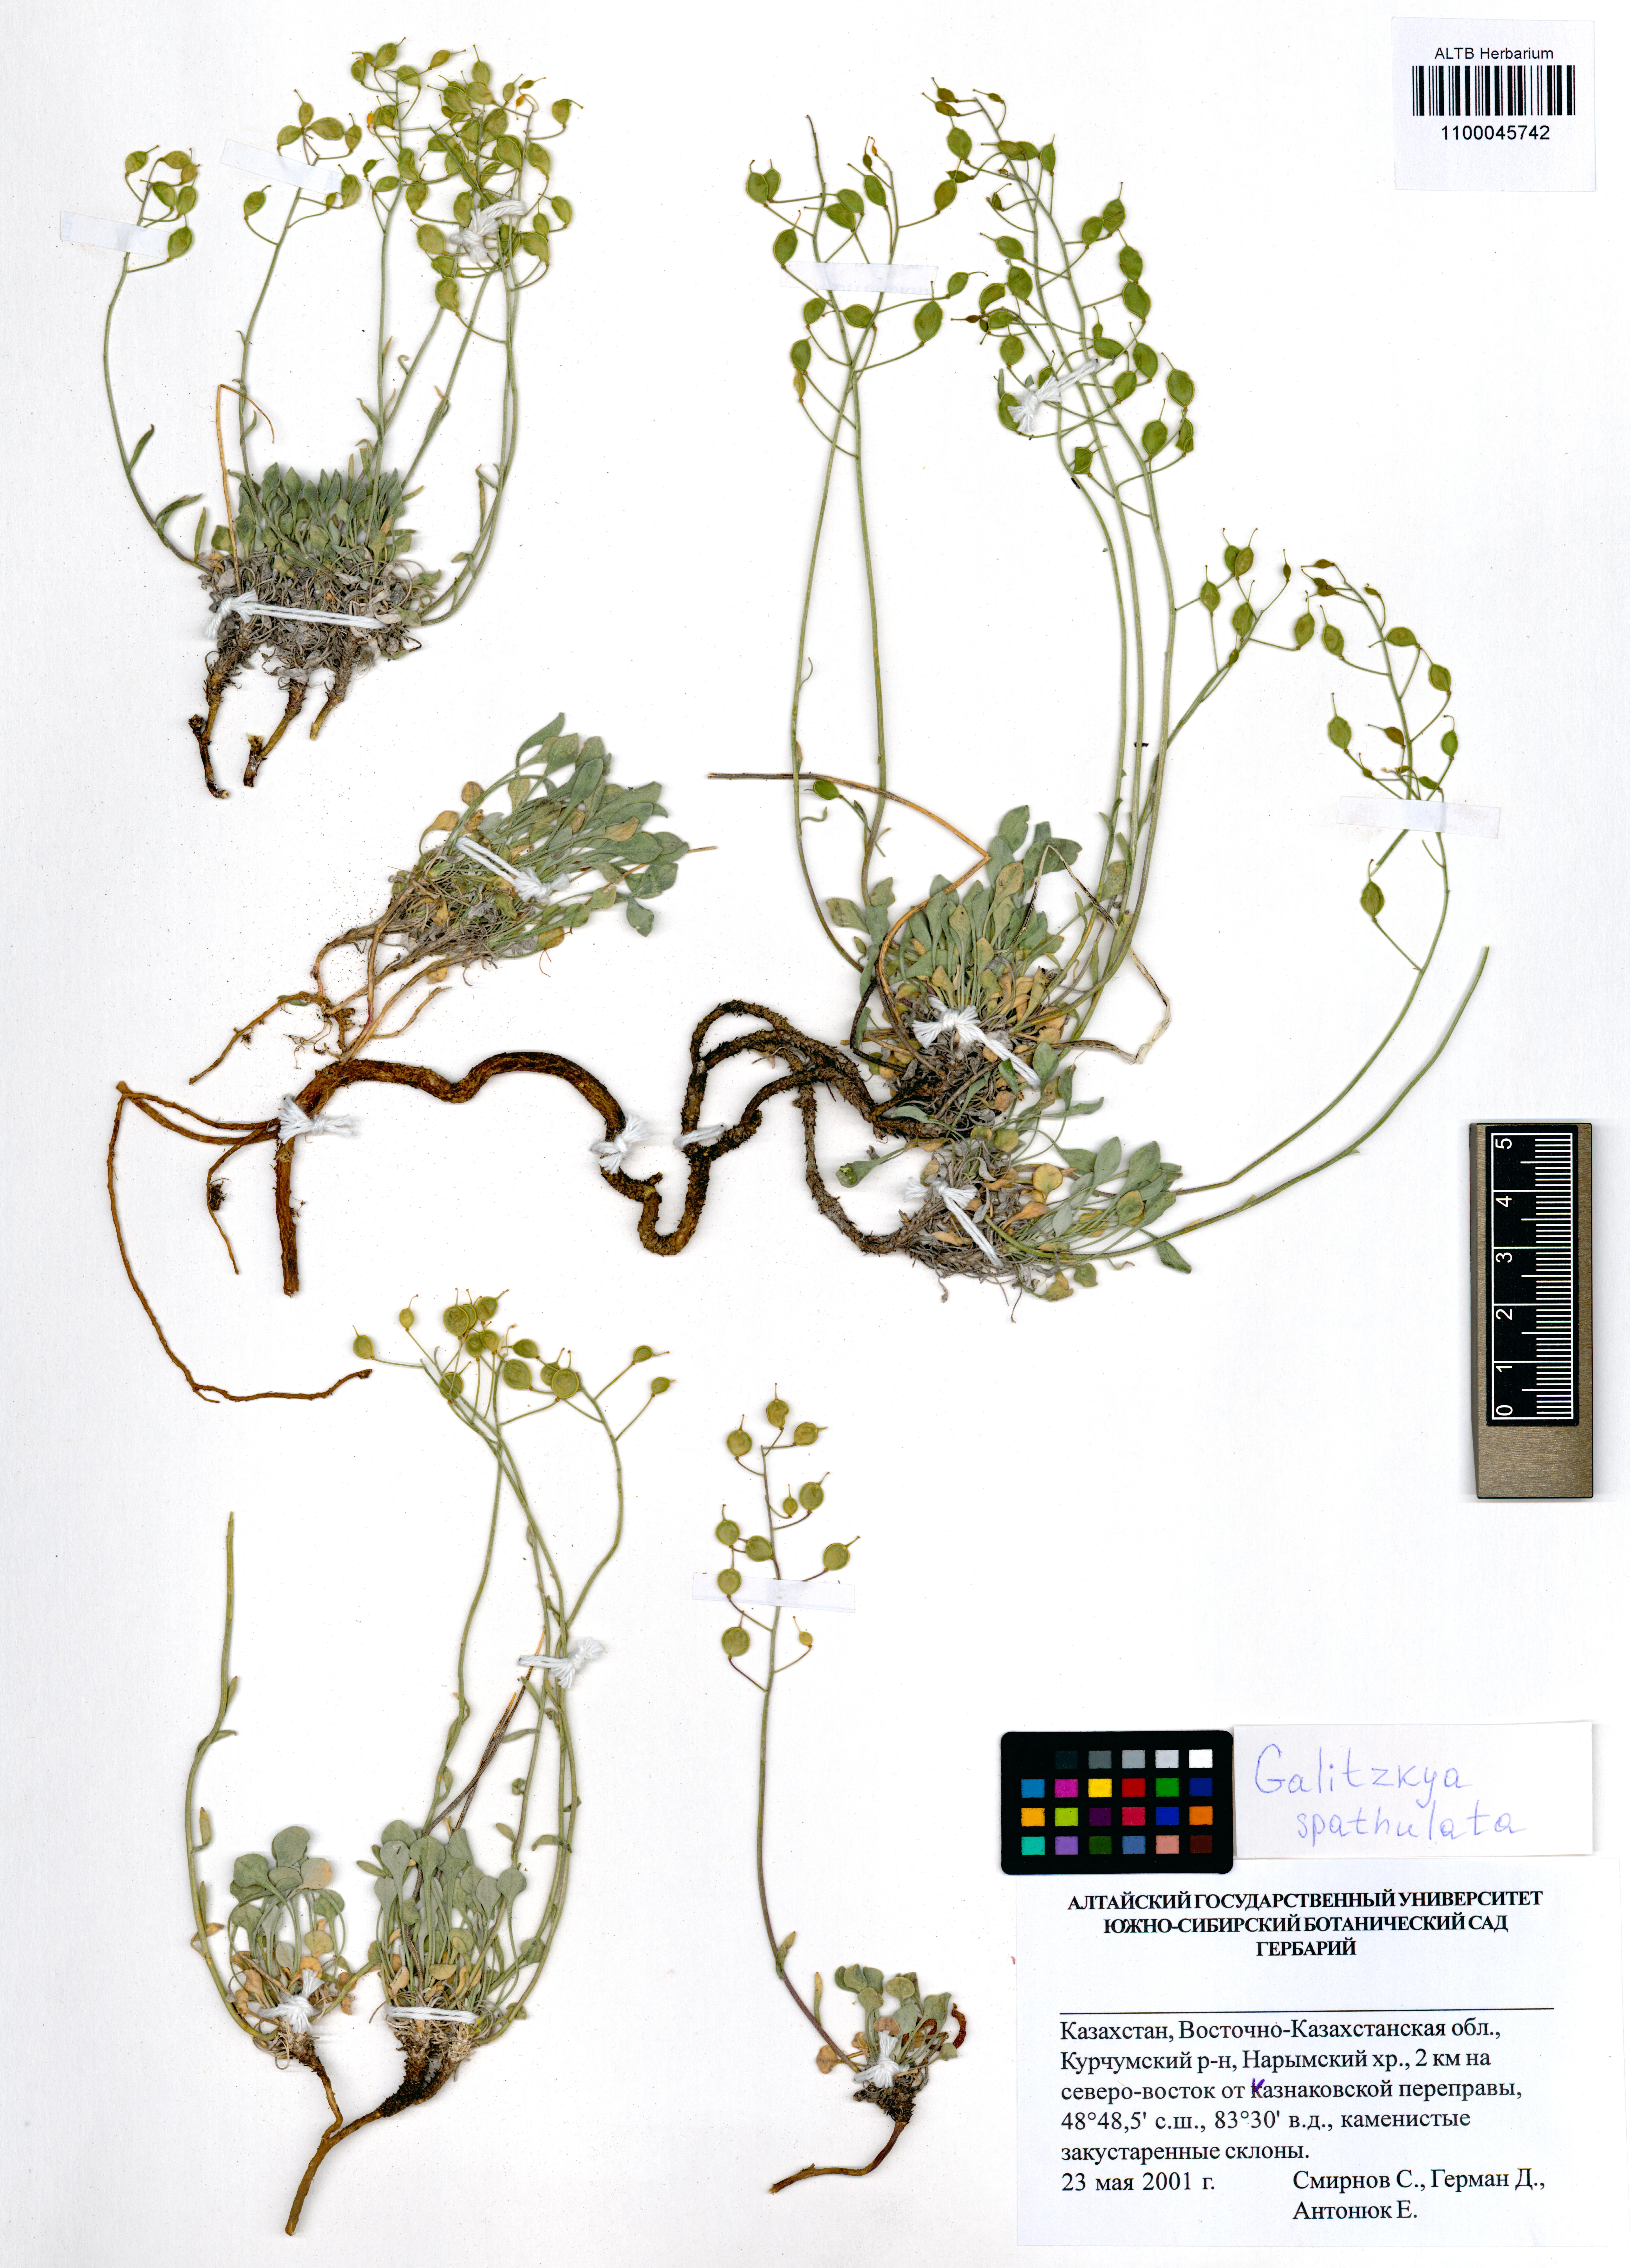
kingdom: Plantae
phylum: Tracheophyta
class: Magnoliopsida
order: Brassicales
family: Brassicaceae
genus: Galitzkya
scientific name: Galitzkya spathulata
